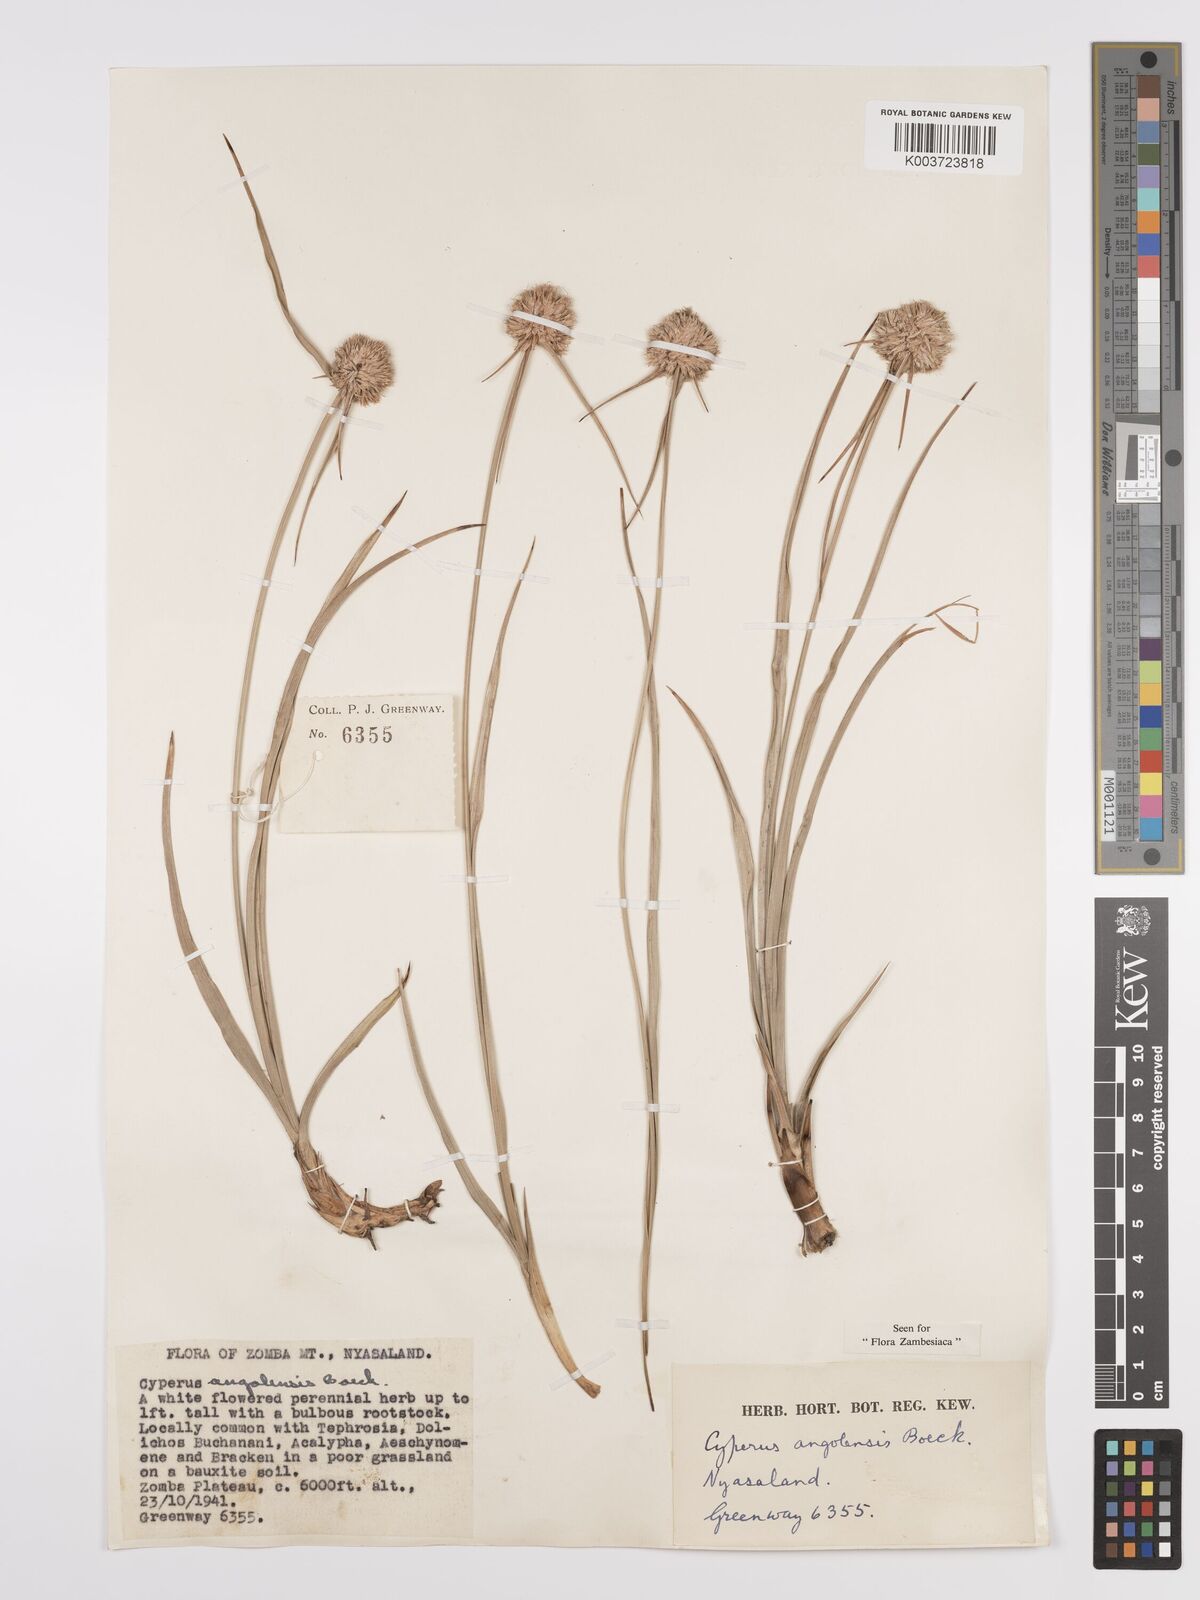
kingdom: Plantae
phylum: Tracheophyta
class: Liliopsida
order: Poales
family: Cyperaceae
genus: Cyperus
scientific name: Cyperus angolensis
